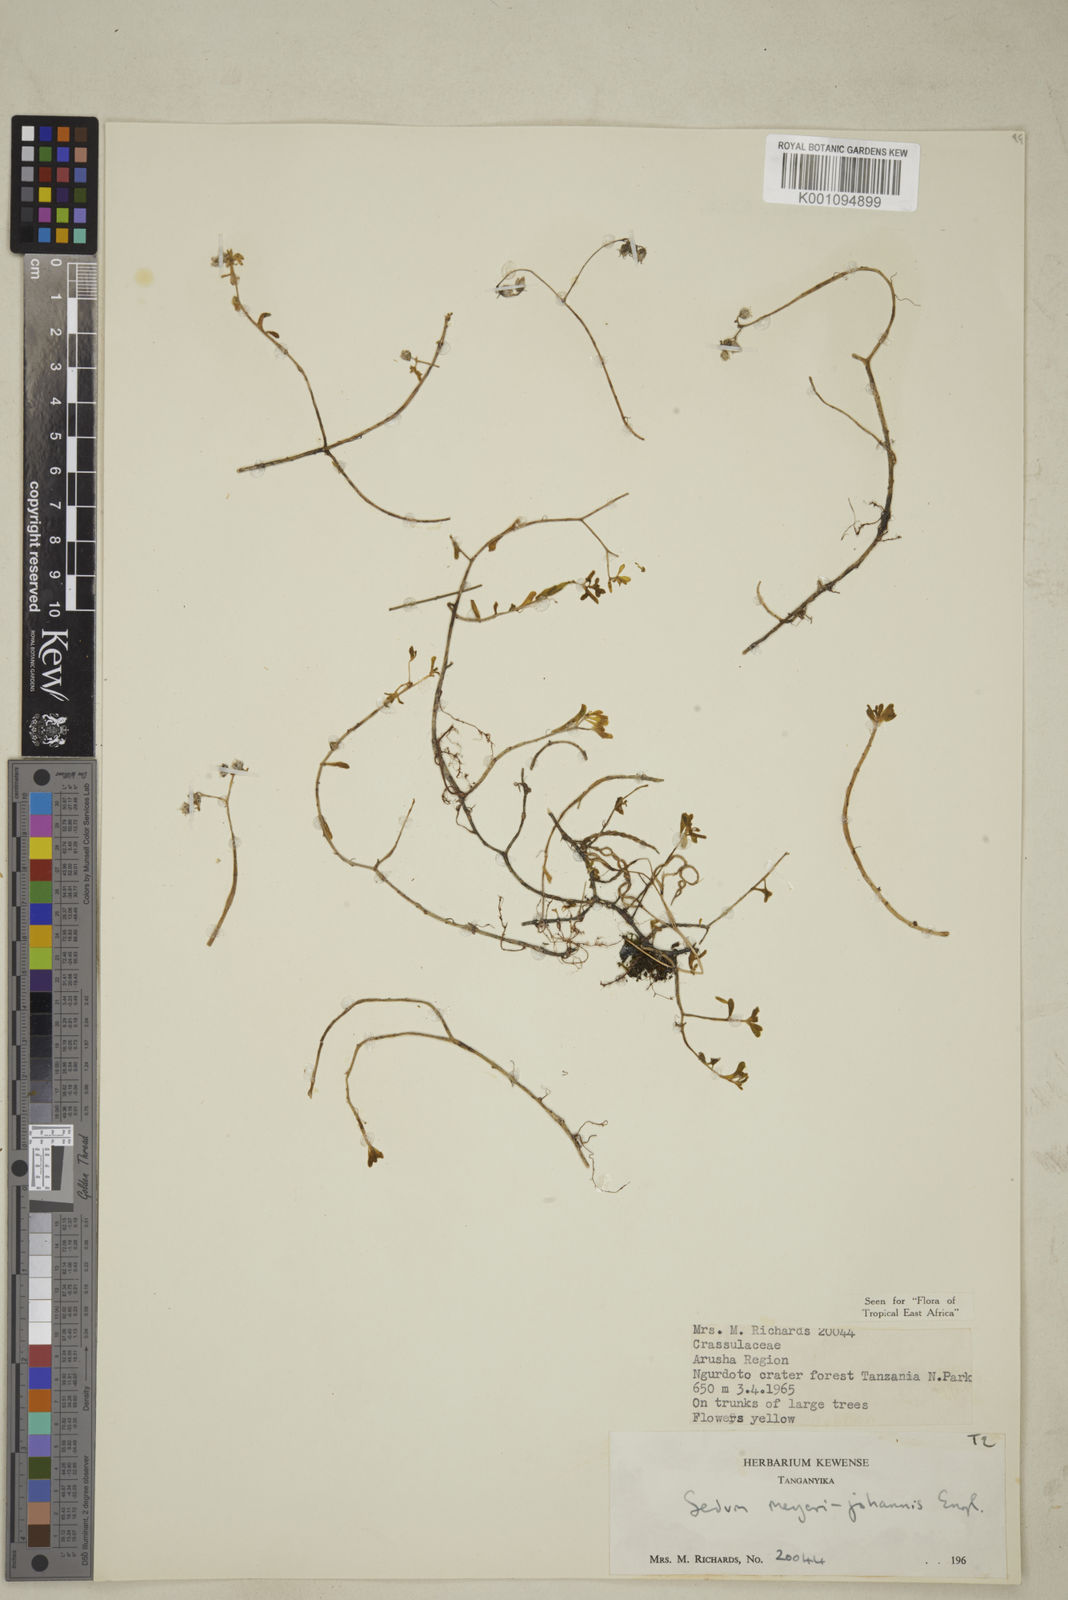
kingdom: Plantae
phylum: Tracheophyta
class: Magnoliopsida
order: Saxifragales
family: Crassulaceae
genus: Sedum
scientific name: Sedum meyeri-johannis
